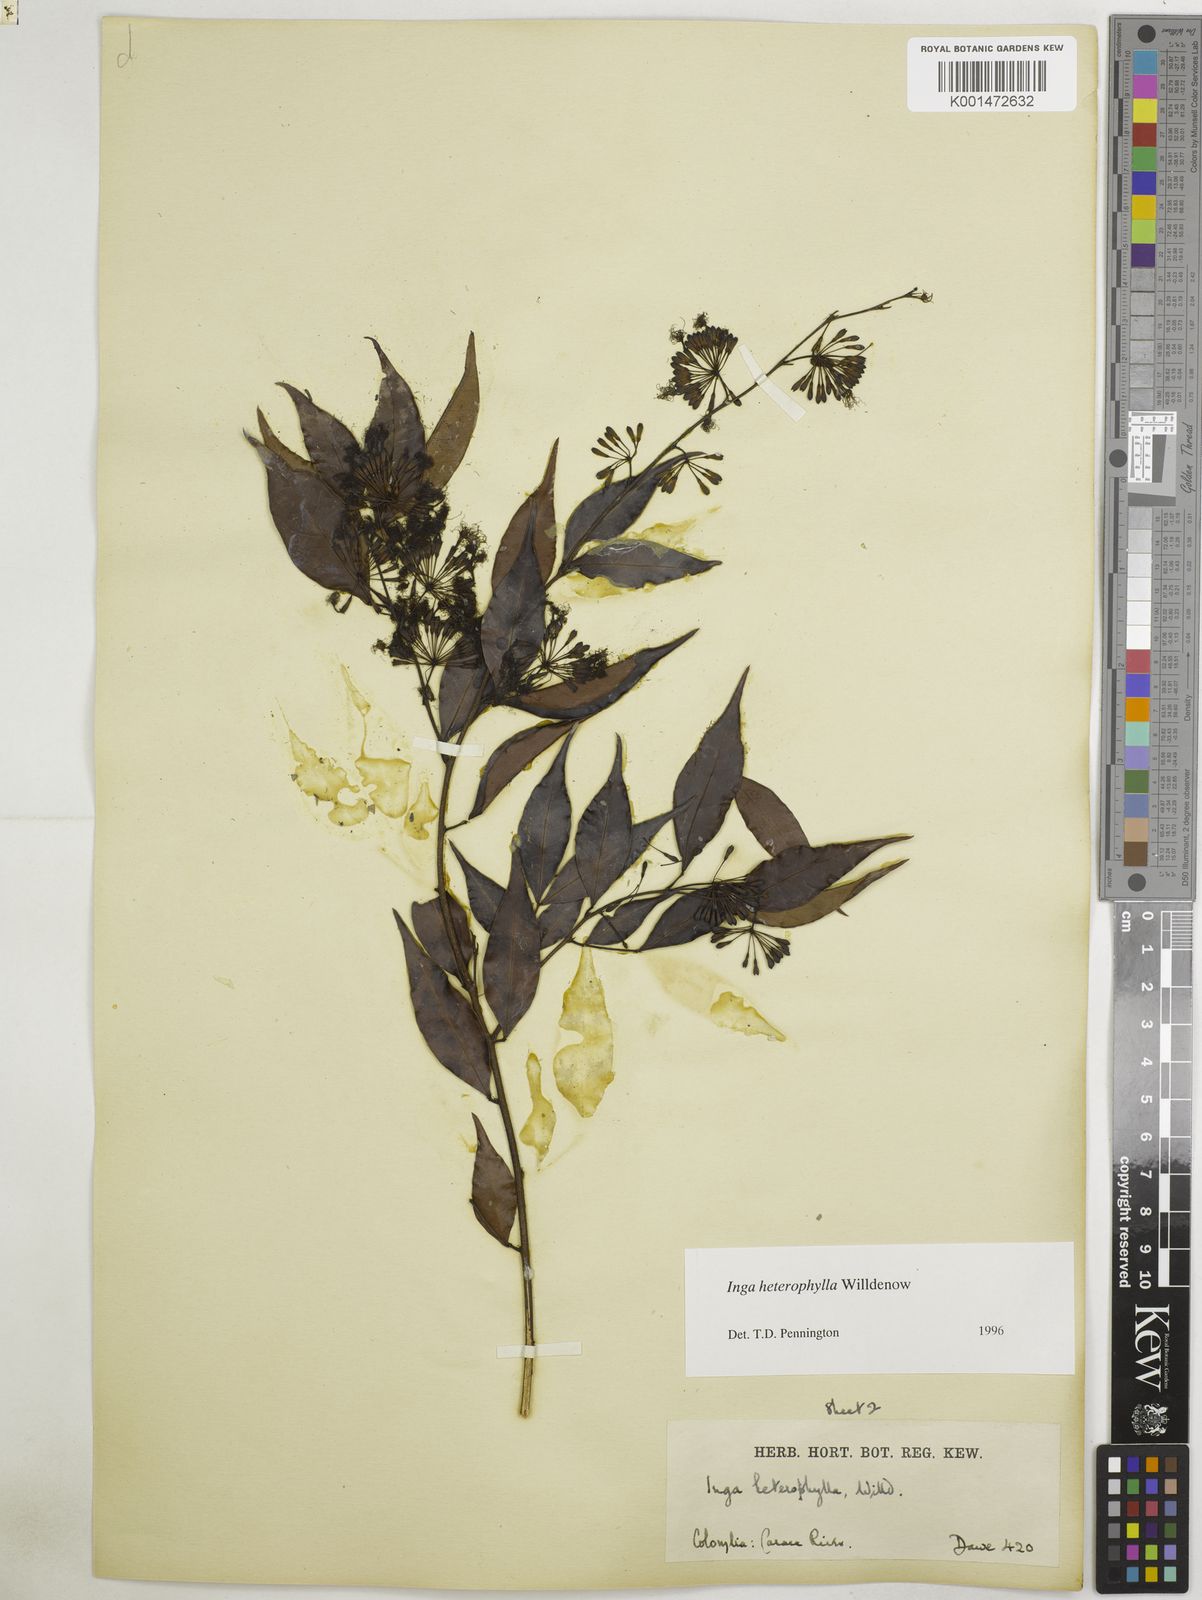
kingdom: Plantae
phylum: Tracheophyta
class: Magnoliopsida
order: Fabales
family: Fabaceae
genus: Inga
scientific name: Inga heterophylla
